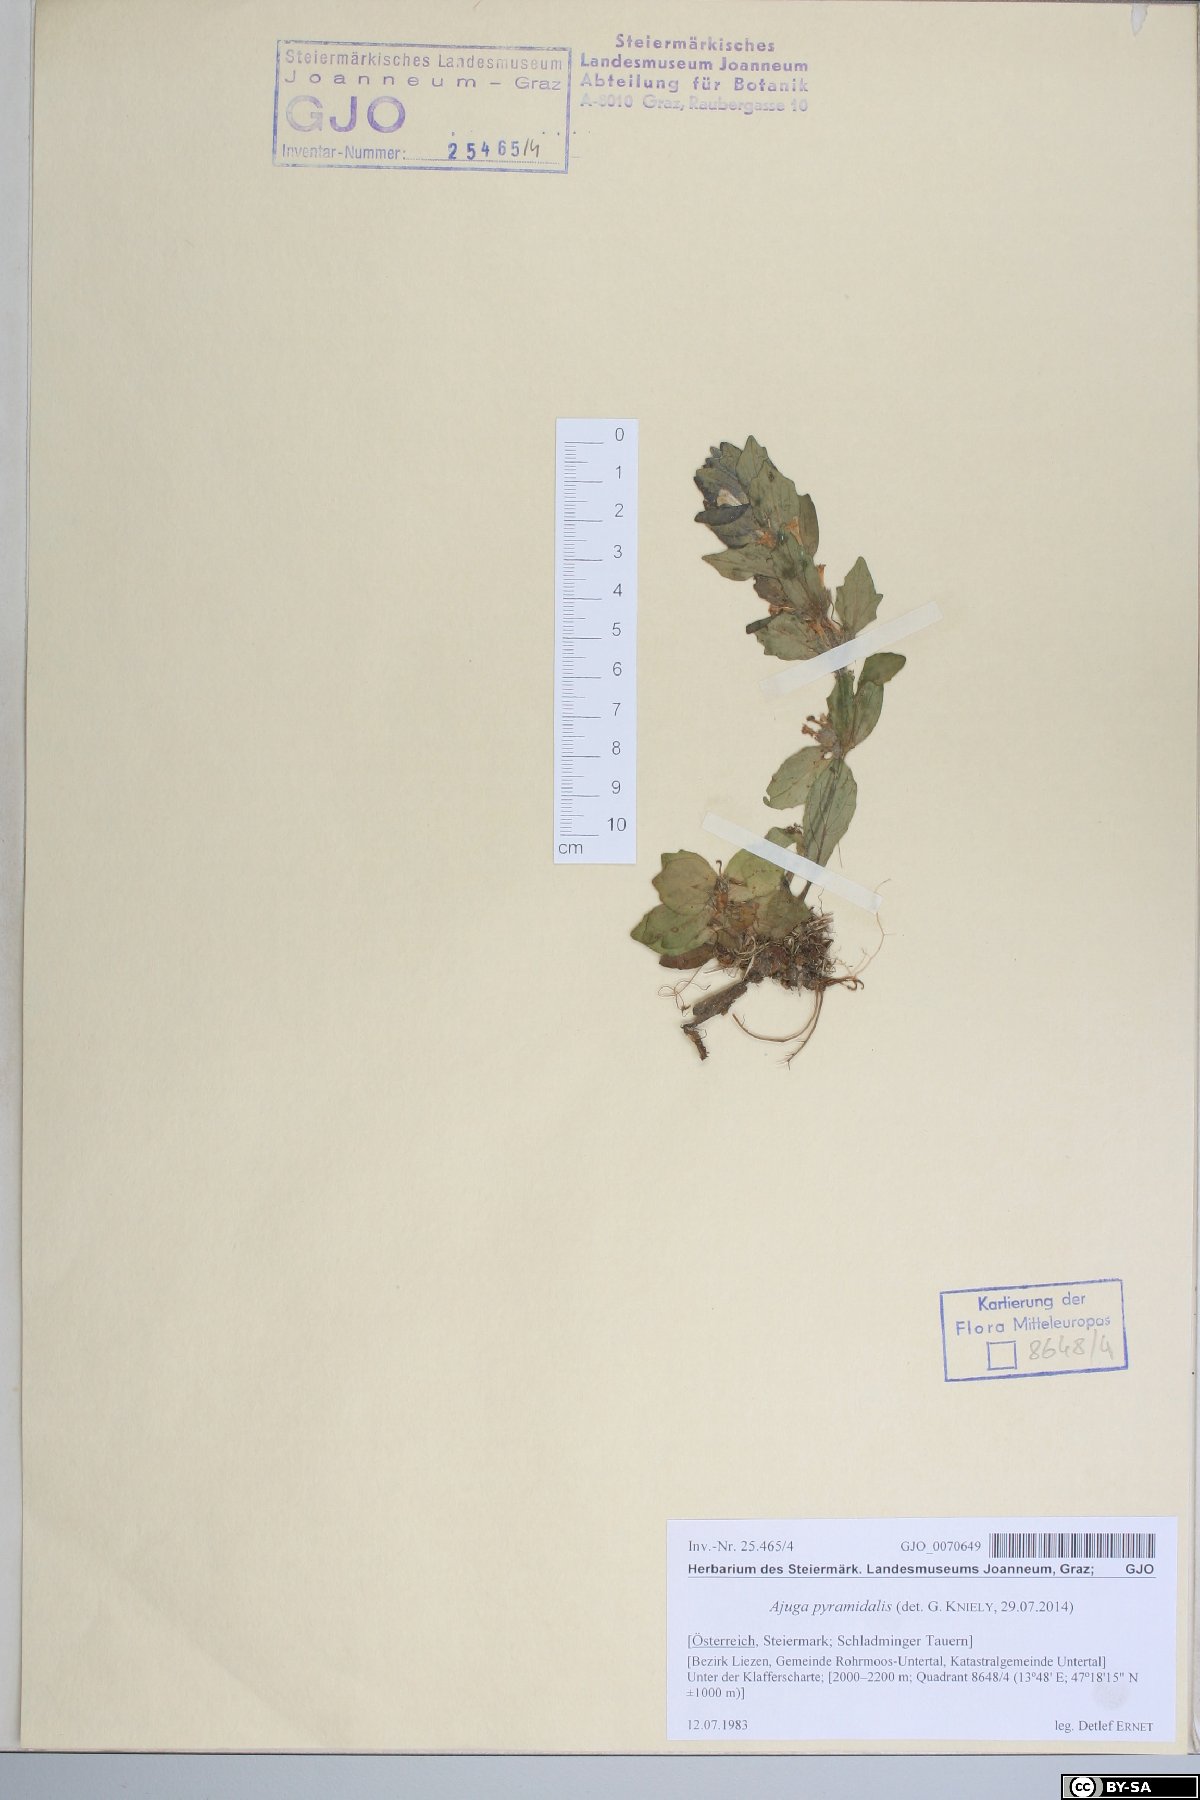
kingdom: Plantae
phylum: Tracheophyta
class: Magnoliopsida
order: Lamiales
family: Lamiaceae
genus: Ajuga
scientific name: Ajuga pyramidalis
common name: Pyramid bugle
